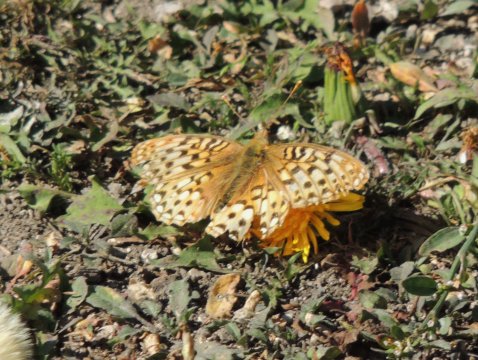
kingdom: Animalia
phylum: Arthropoda
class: Insecta
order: Lepidoptera
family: Nymphalidae
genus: Speyeria
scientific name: Speyeria coronis
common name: Coronis Fritillary
